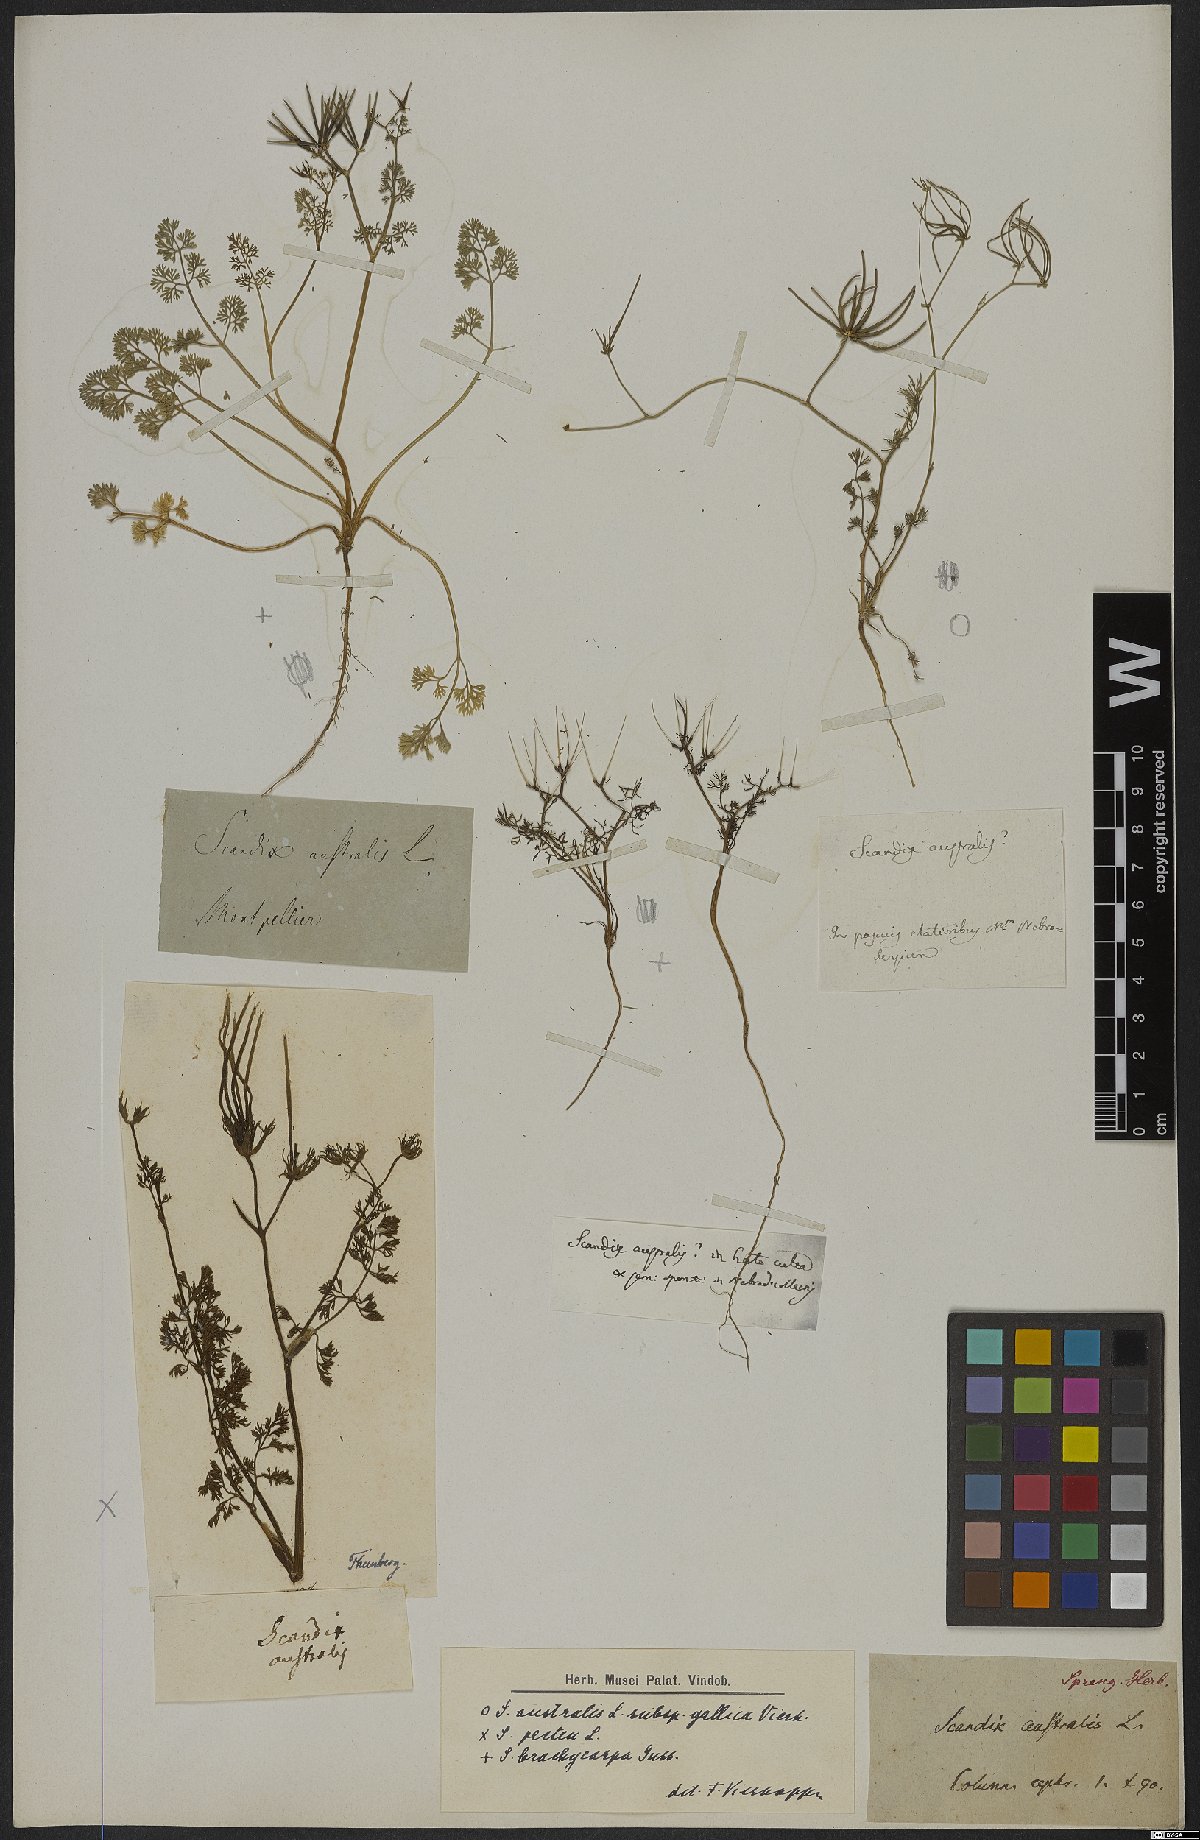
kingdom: Plantae
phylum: Tracheophyta
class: Magnoliopsida
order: Apiales
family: Apiaceae
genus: Scandix
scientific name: Scandix australis
